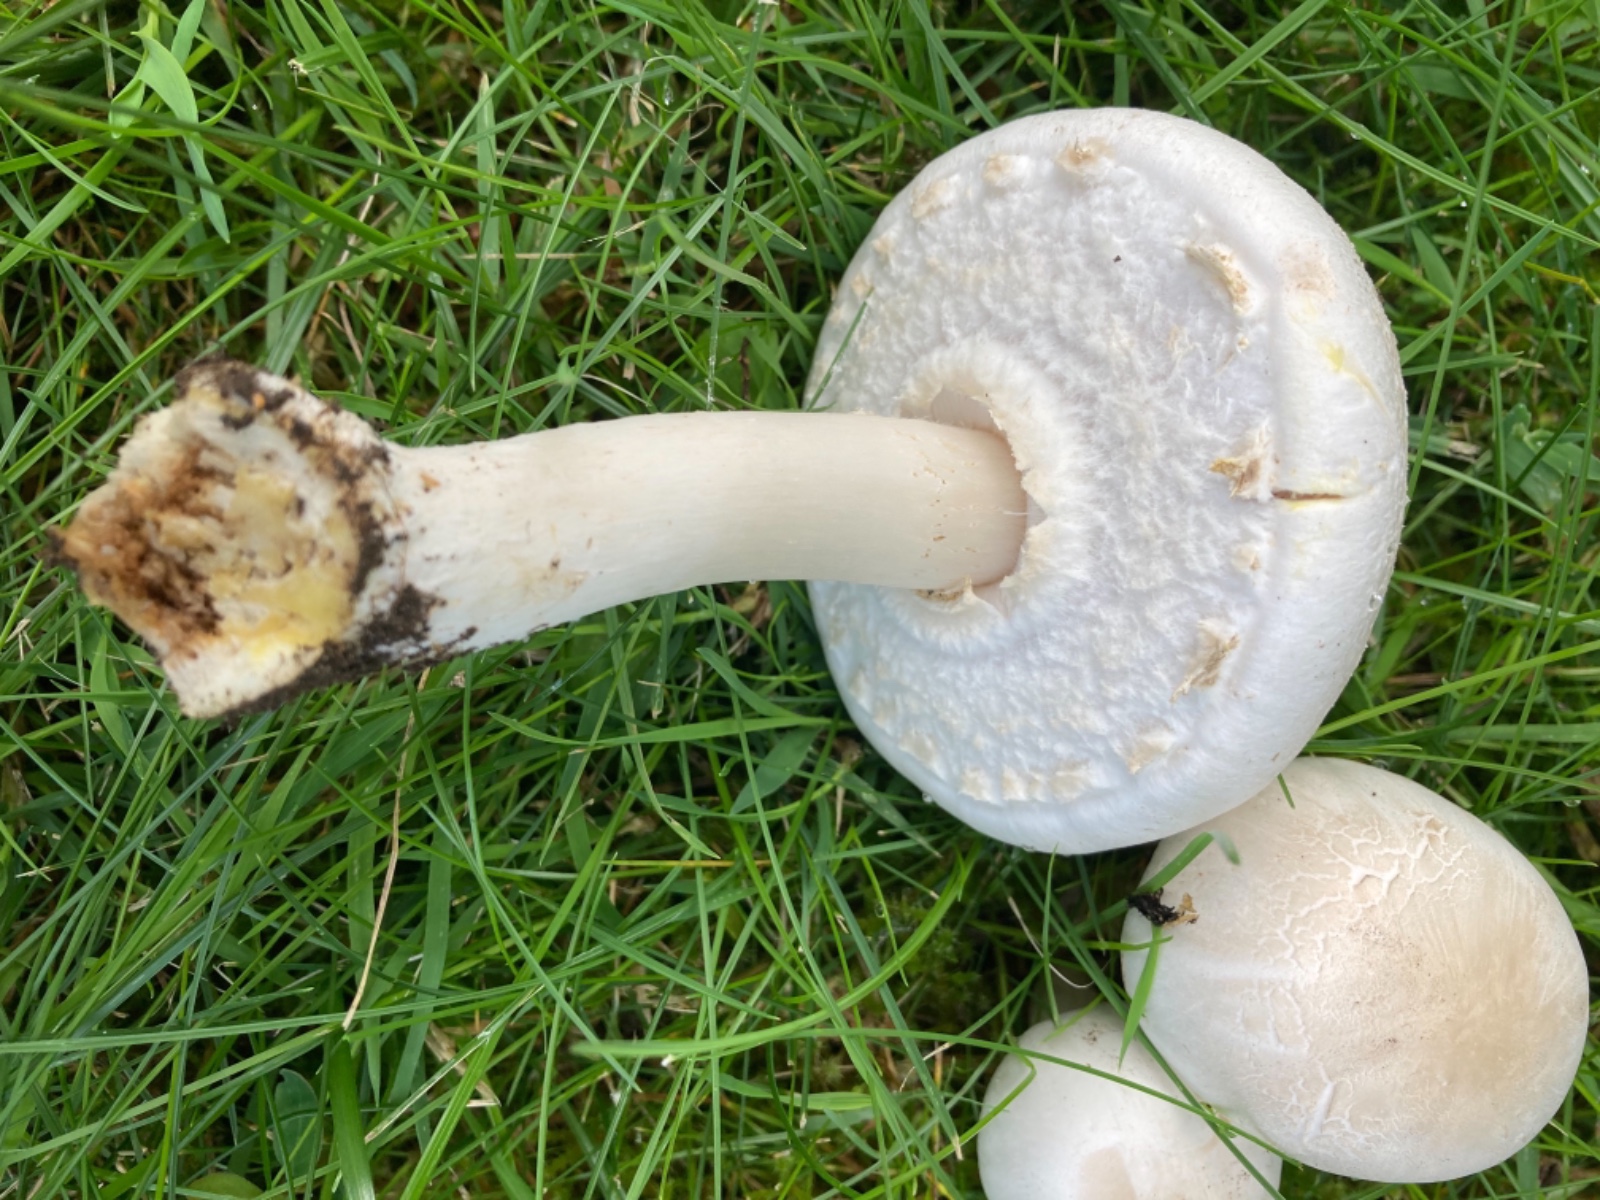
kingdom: Fungi
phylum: Basidiomycota
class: Agaricomycetes
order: Agaricales
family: Agaricaceae
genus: Agaricus
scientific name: Agaricus xanthodermus
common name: karbol-champignon
